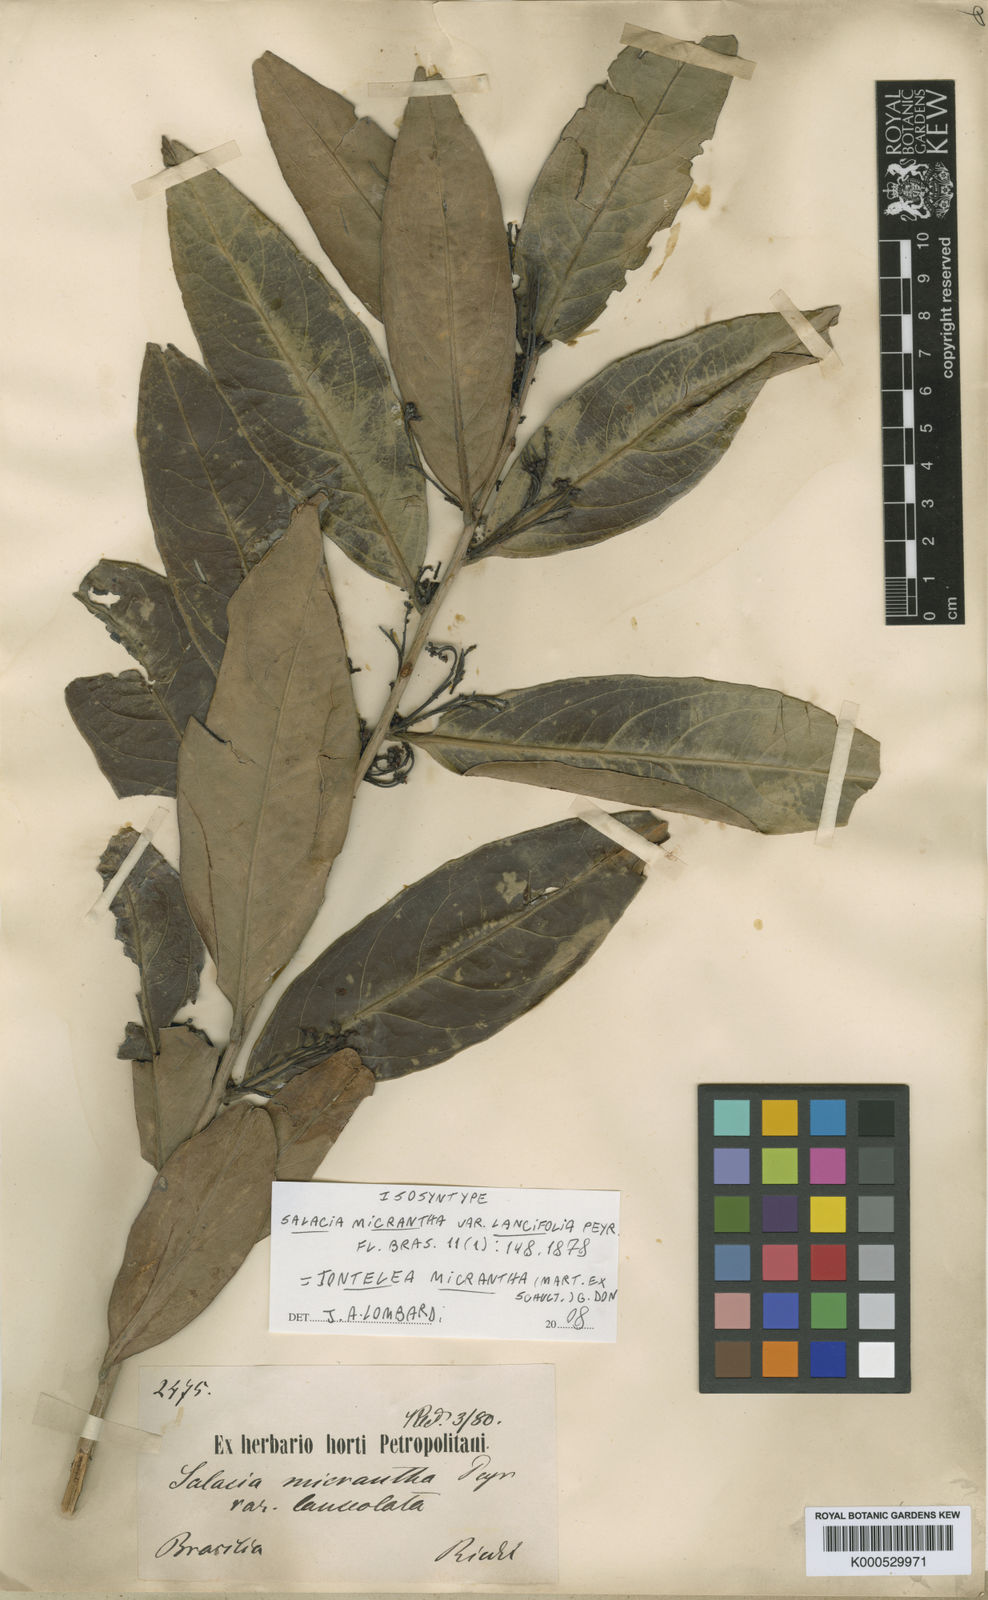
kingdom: Plantae
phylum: Tracheophyta
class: Magnoliopsida
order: Celastrales
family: Celastraceae
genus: Tontelea
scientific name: Tontelea
